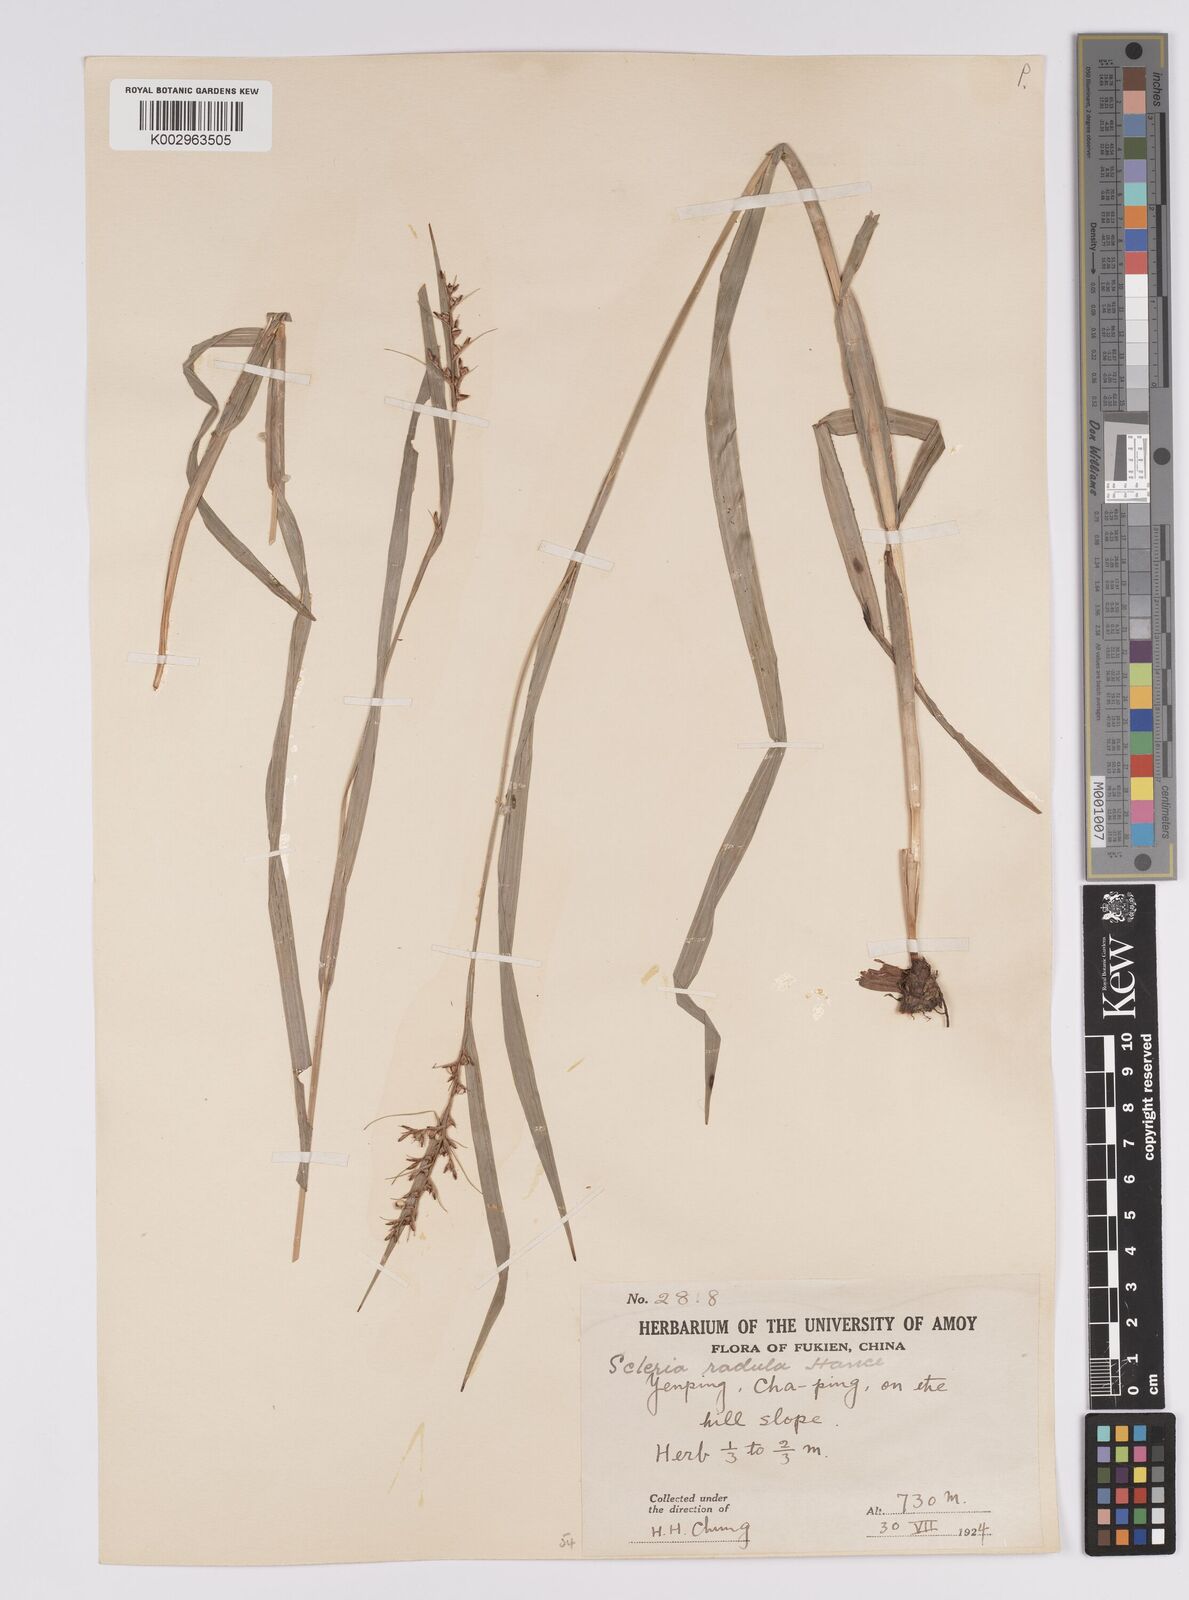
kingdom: Plantae
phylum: Tracheophyta
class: Liliopsida
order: Poales
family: Cyperaceae
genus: Scleria
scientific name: Scleria radula
